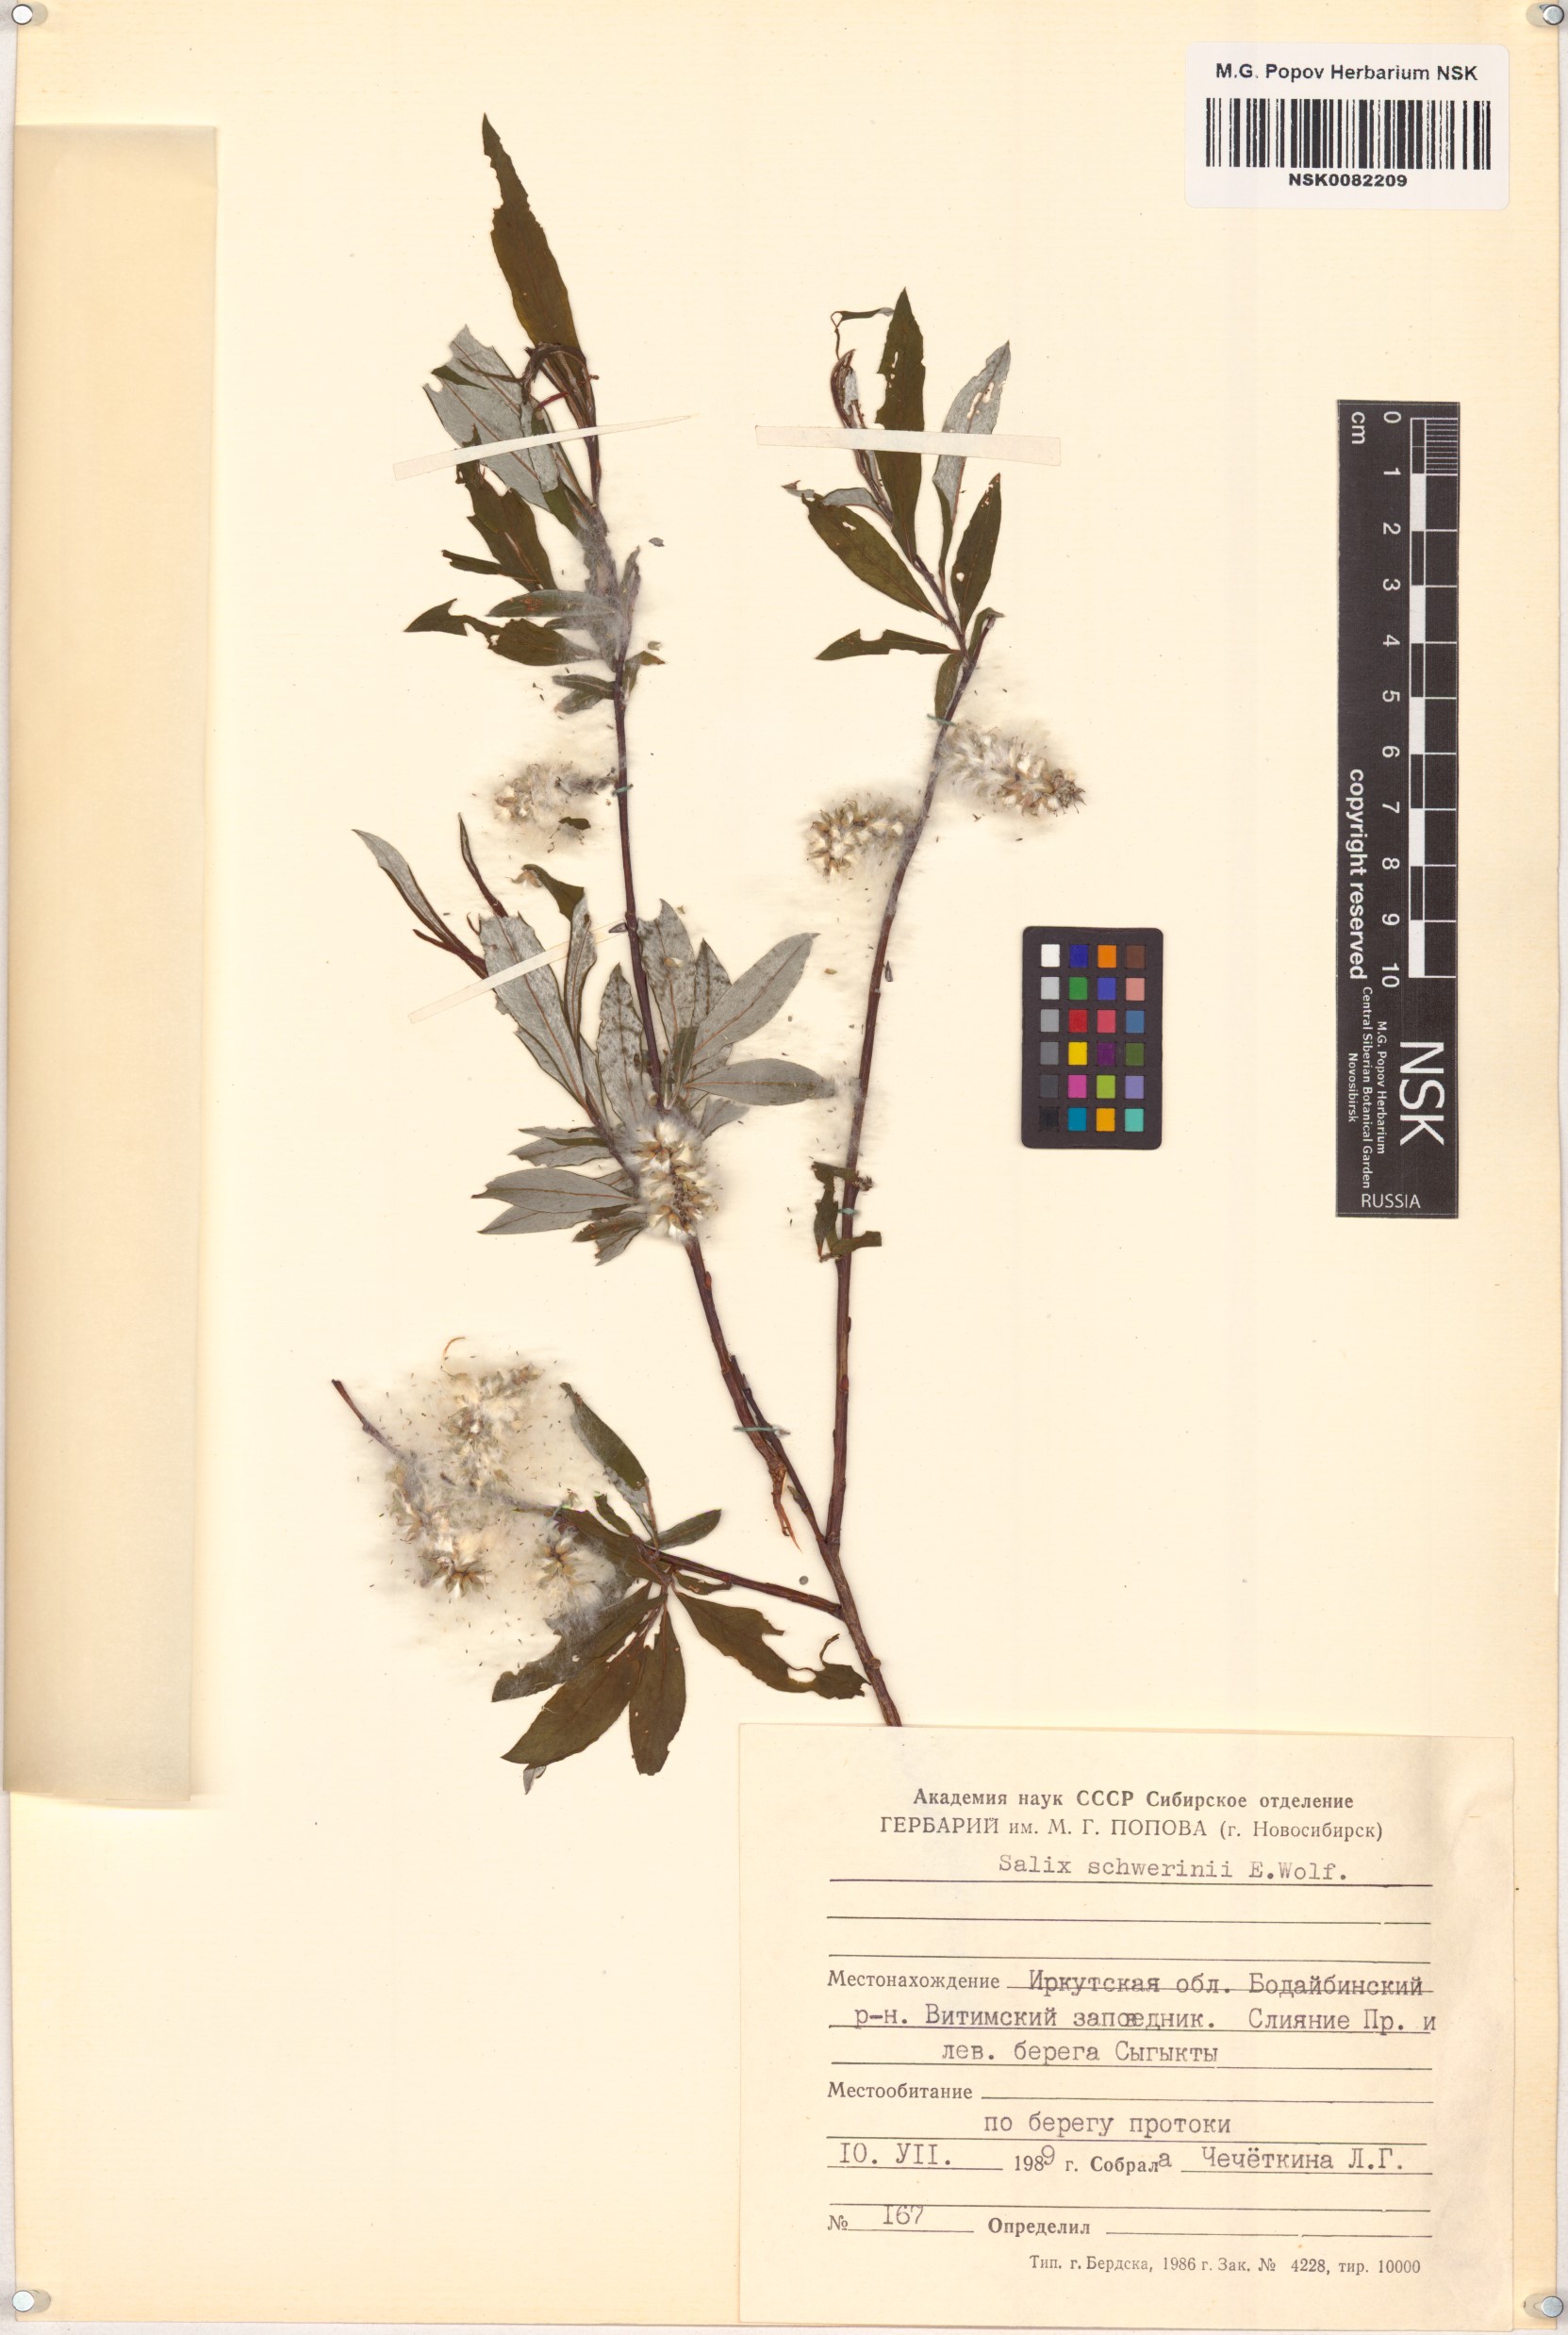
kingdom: Plantae
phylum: Tracheophyta
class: Magnoliopsida
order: Malpighiales
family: Salicaceae
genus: Salix
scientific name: Salix schwerinii
